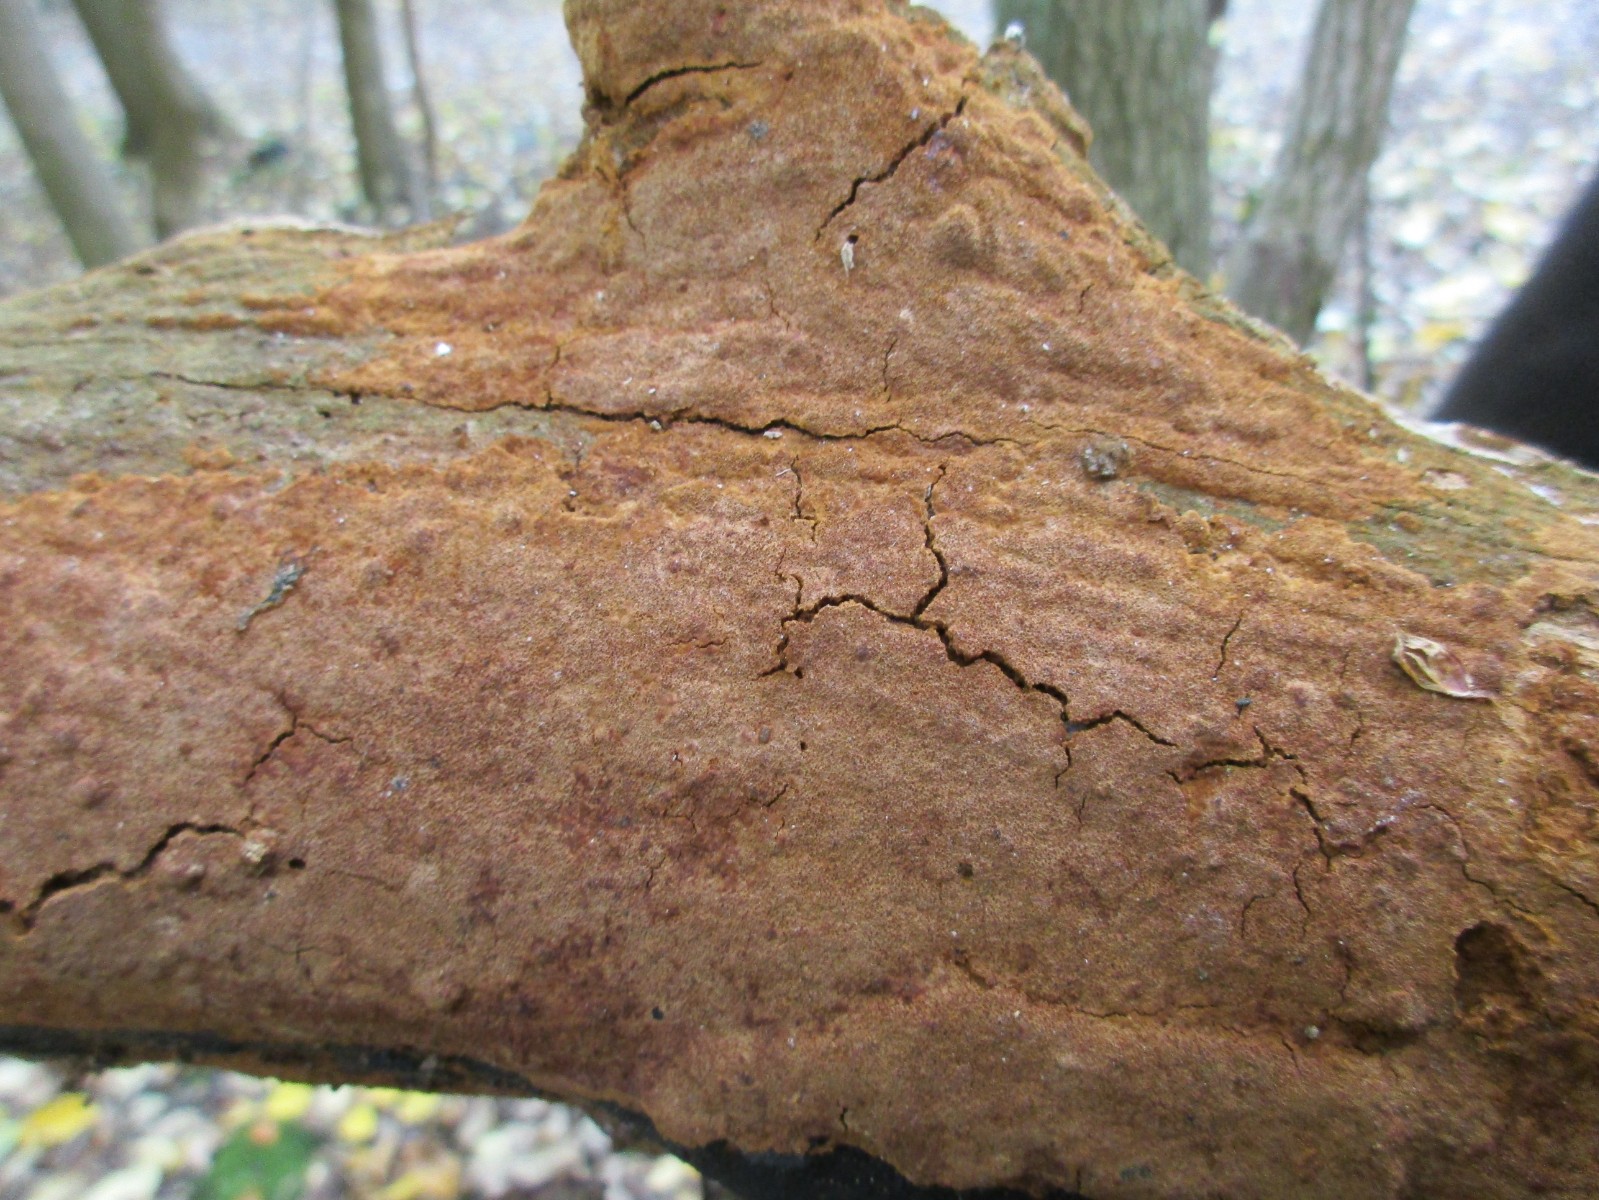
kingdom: Fungi
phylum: Basidiomycota
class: Agaricomycetes
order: Hymenochaetales
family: Hymenochaetaceae
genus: Fuscoporia
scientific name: Fuscoporia
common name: Ildporesvamp
